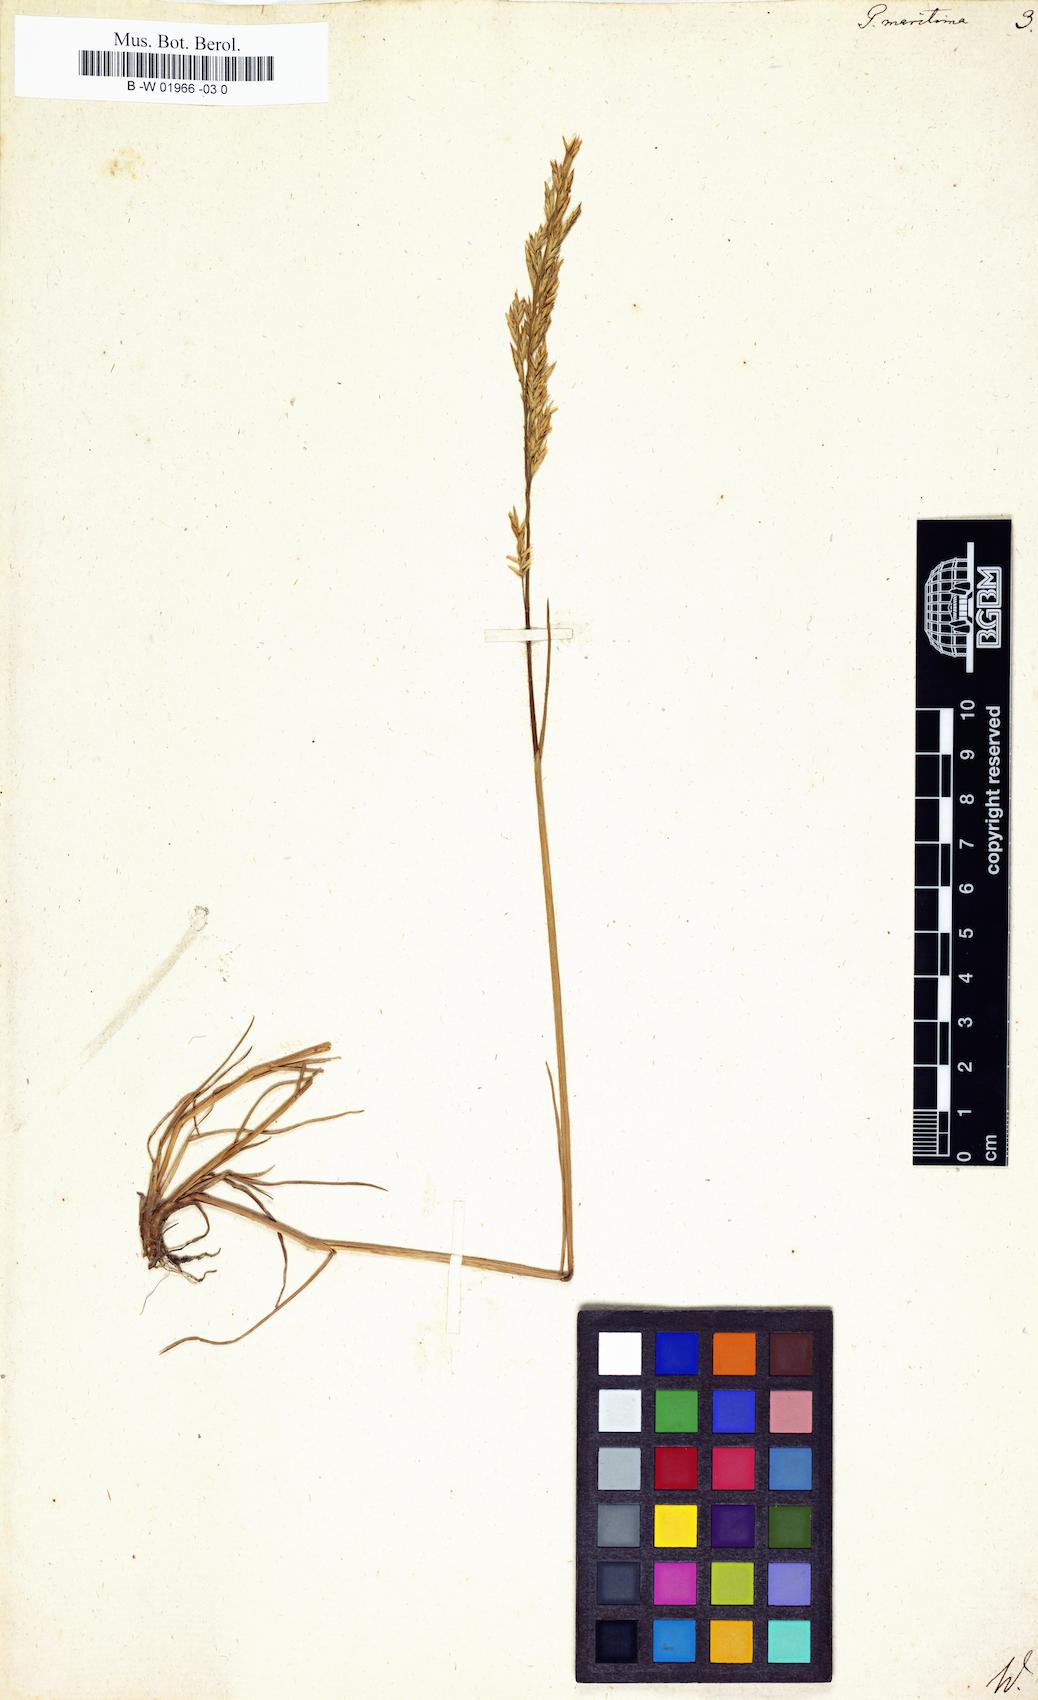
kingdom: Plantae
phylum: Tracheophyta
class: Liliopsida
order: Poales
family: Poaceae
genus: Poa
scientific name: Poa maritima
